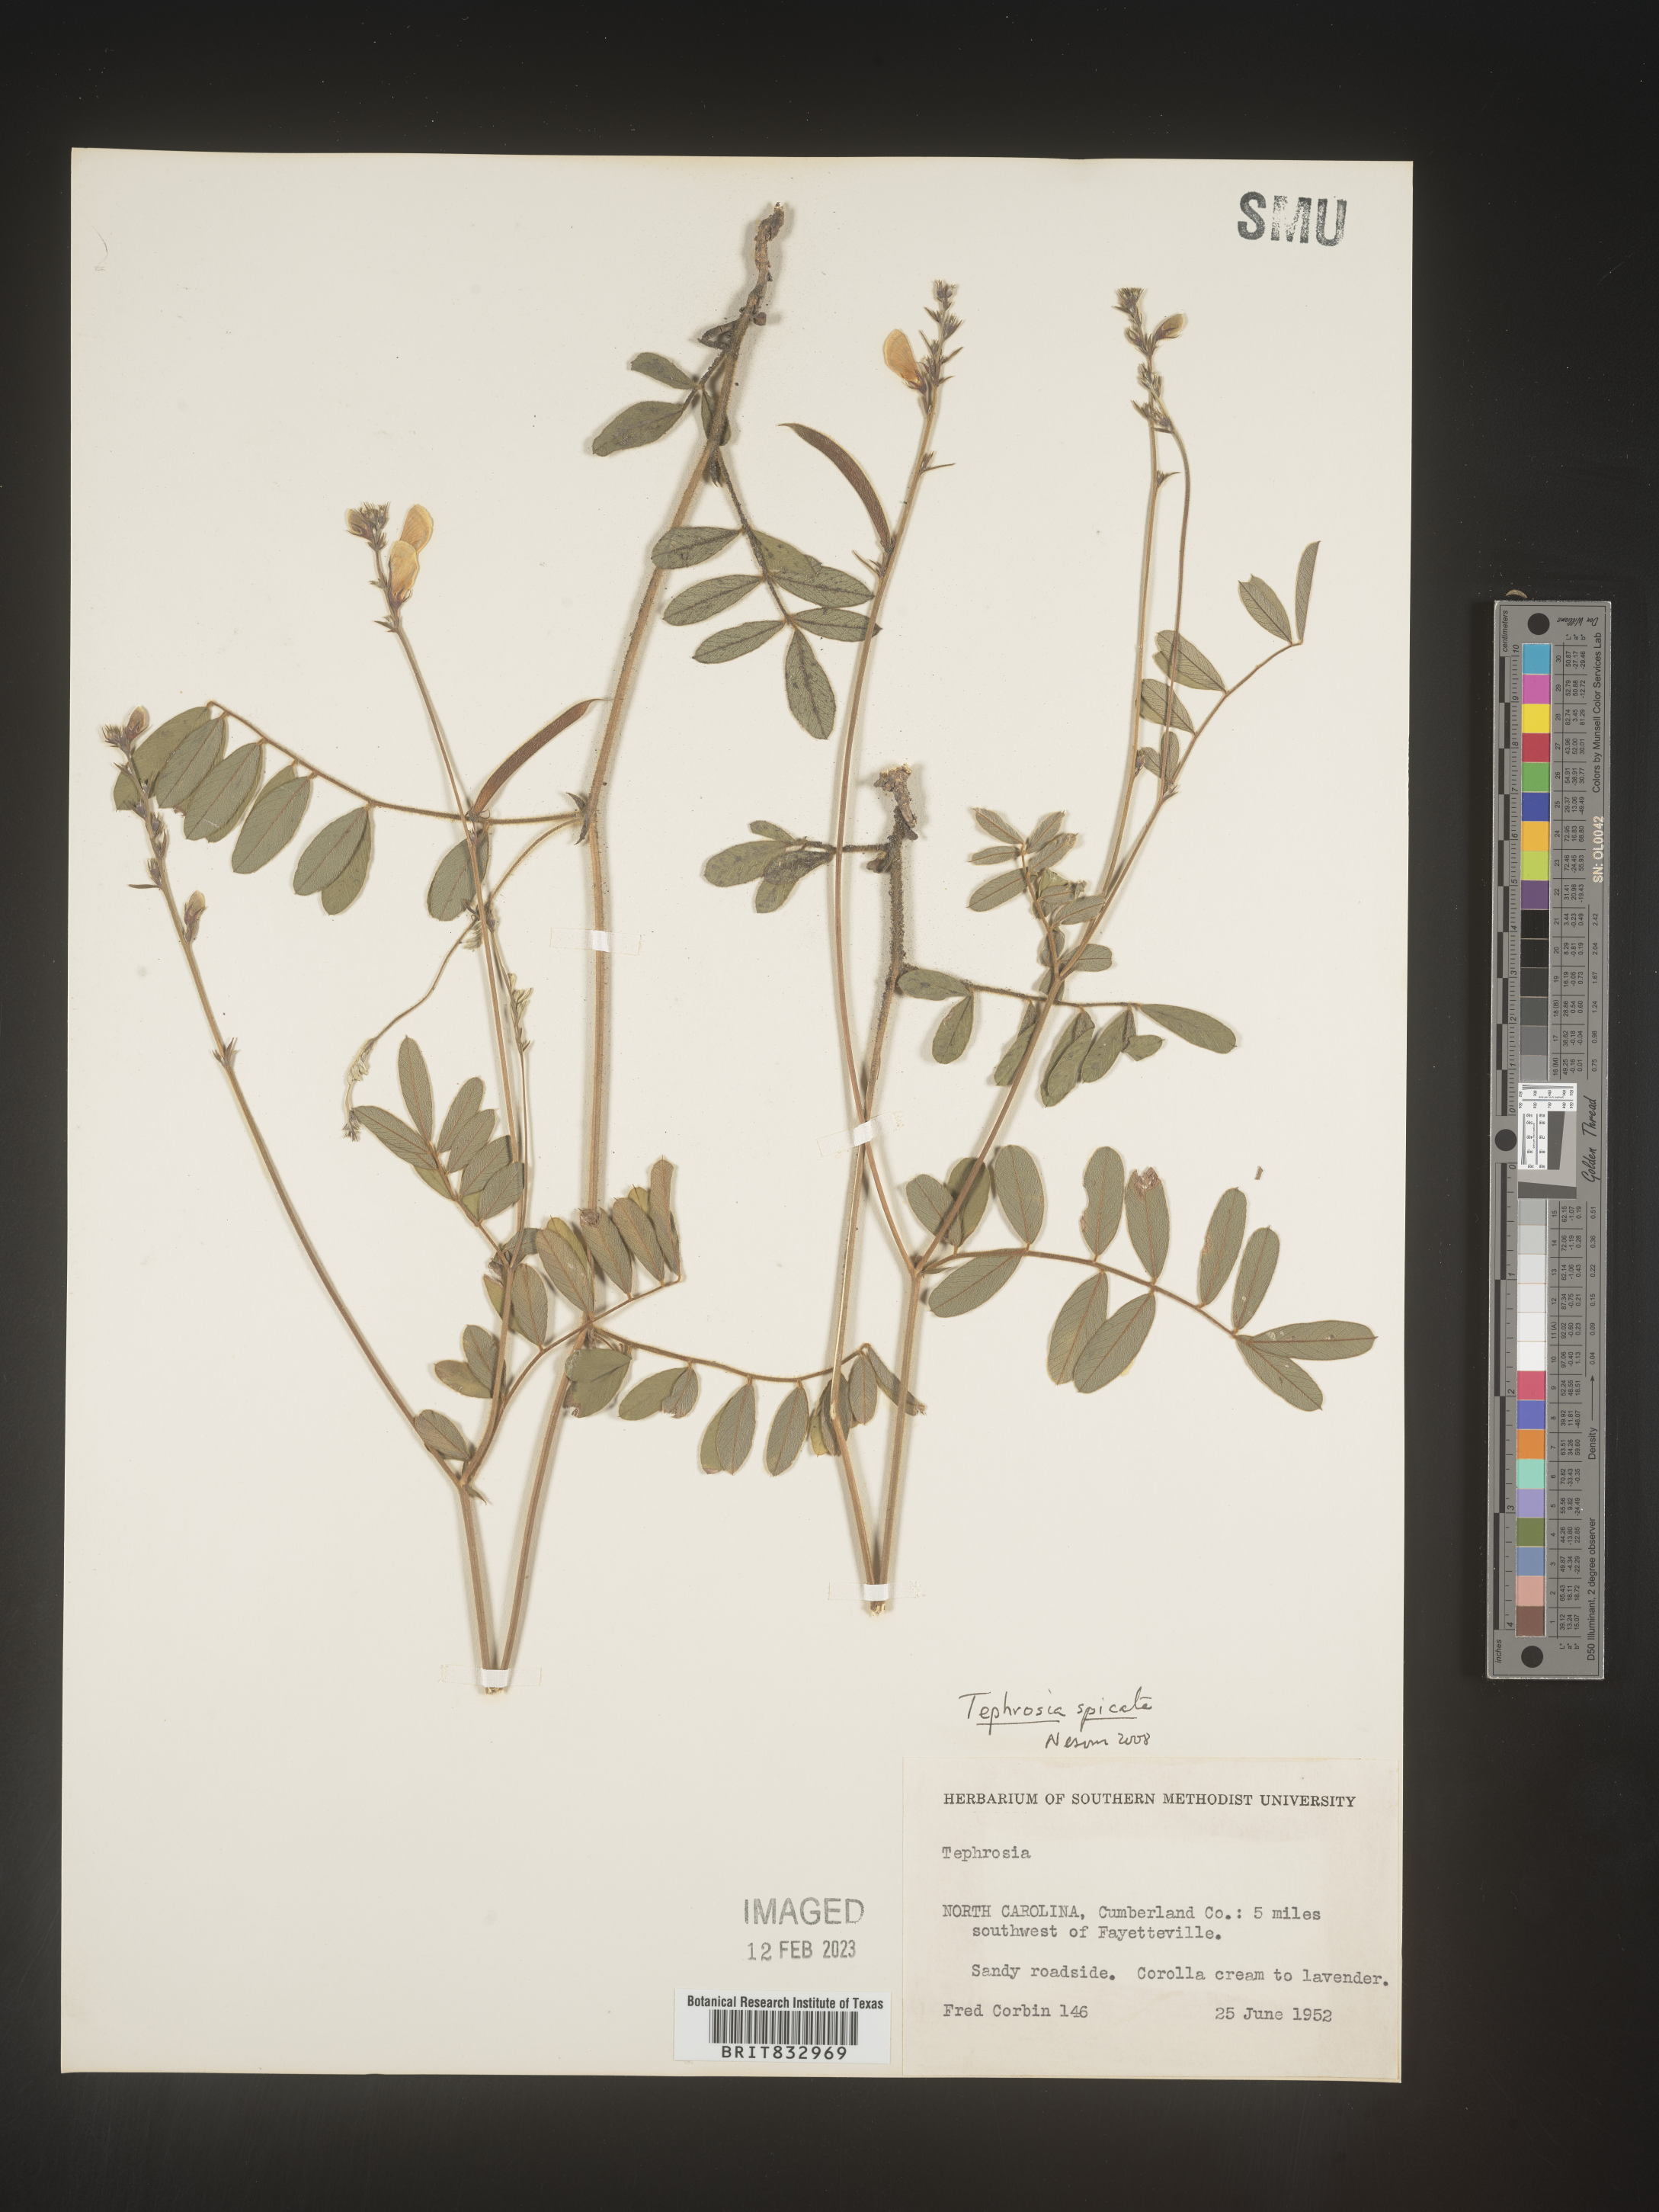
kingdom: Plantae
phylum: Tracheophyta
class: Magnoliopsida
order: Fabales
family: Fabaceae
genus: Tephrosia
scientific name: Tephrosia spicata
